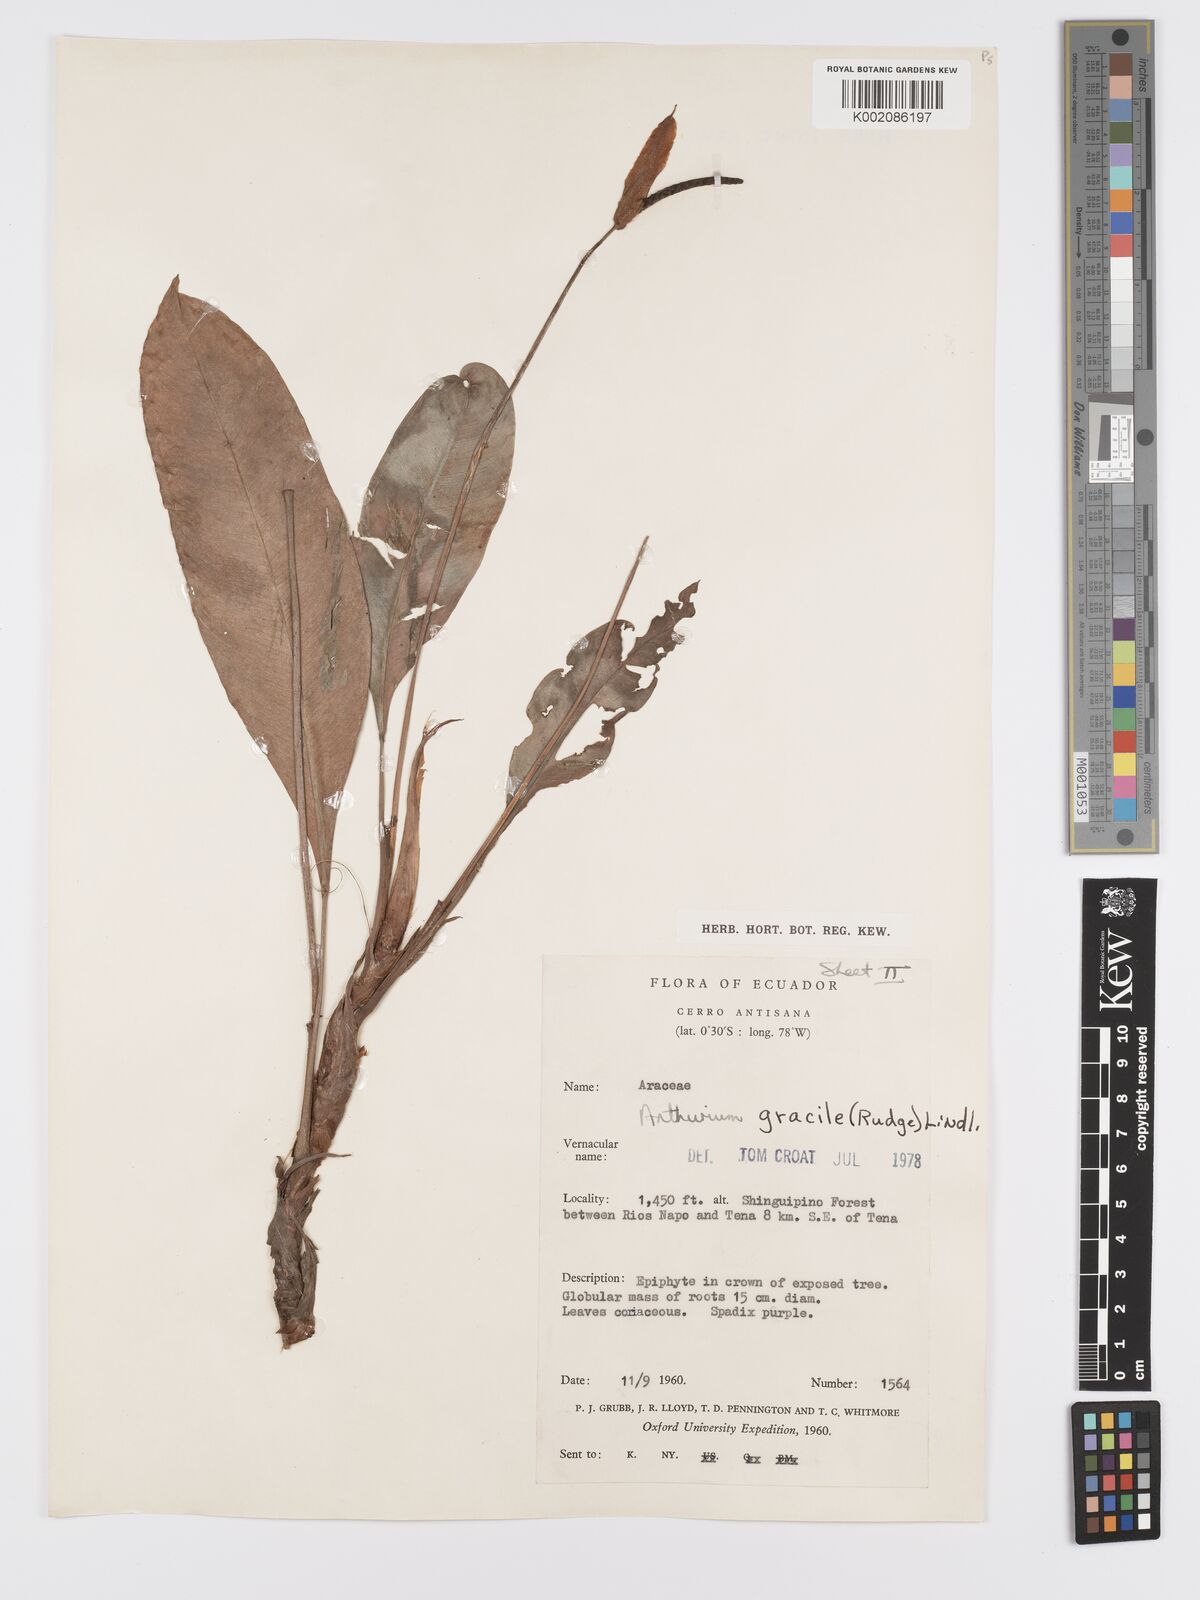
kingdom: Plantae
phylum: Tracheophyta
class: Liliopsida
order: Alismatales
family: Araceae
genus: Anthurium
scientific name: Anthurium gracile
